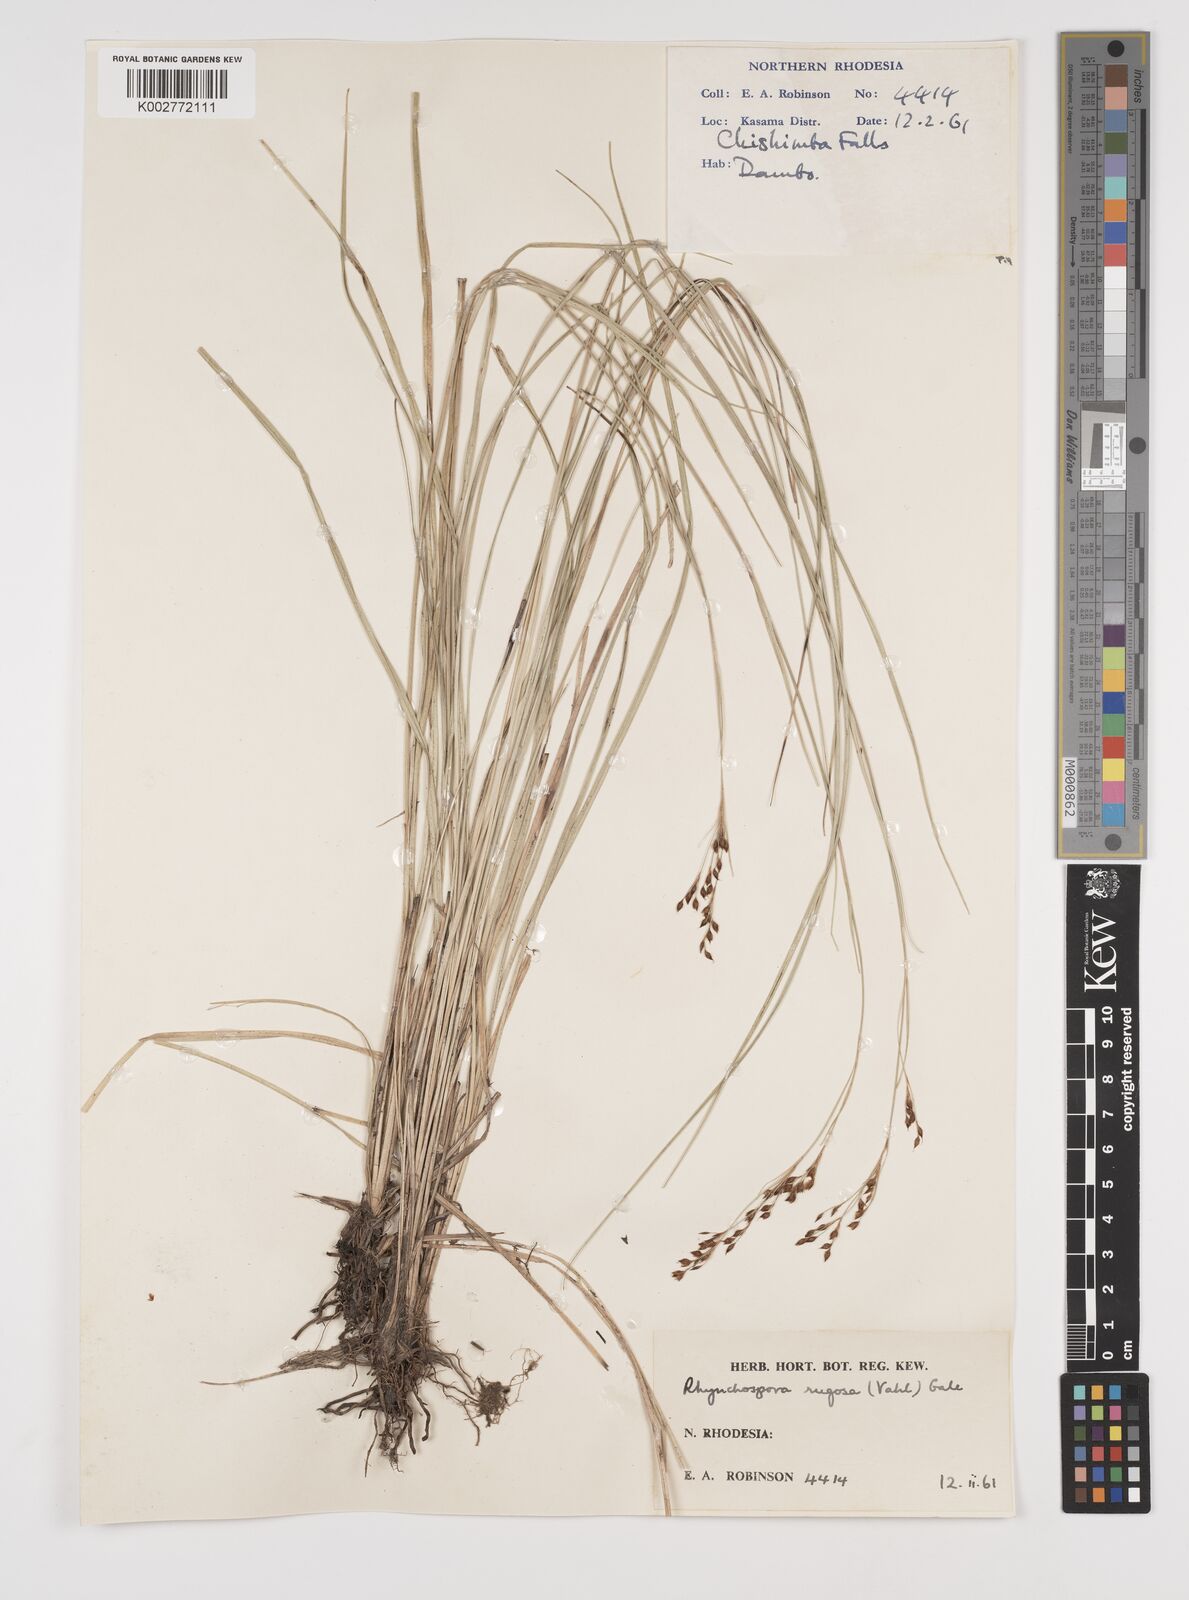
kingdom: Plantae
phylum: Tracheophyta
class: Liliopsida
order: Poales
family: Cyperaceae
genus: Rhynchospora
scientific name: Rhynchospora rugosa
